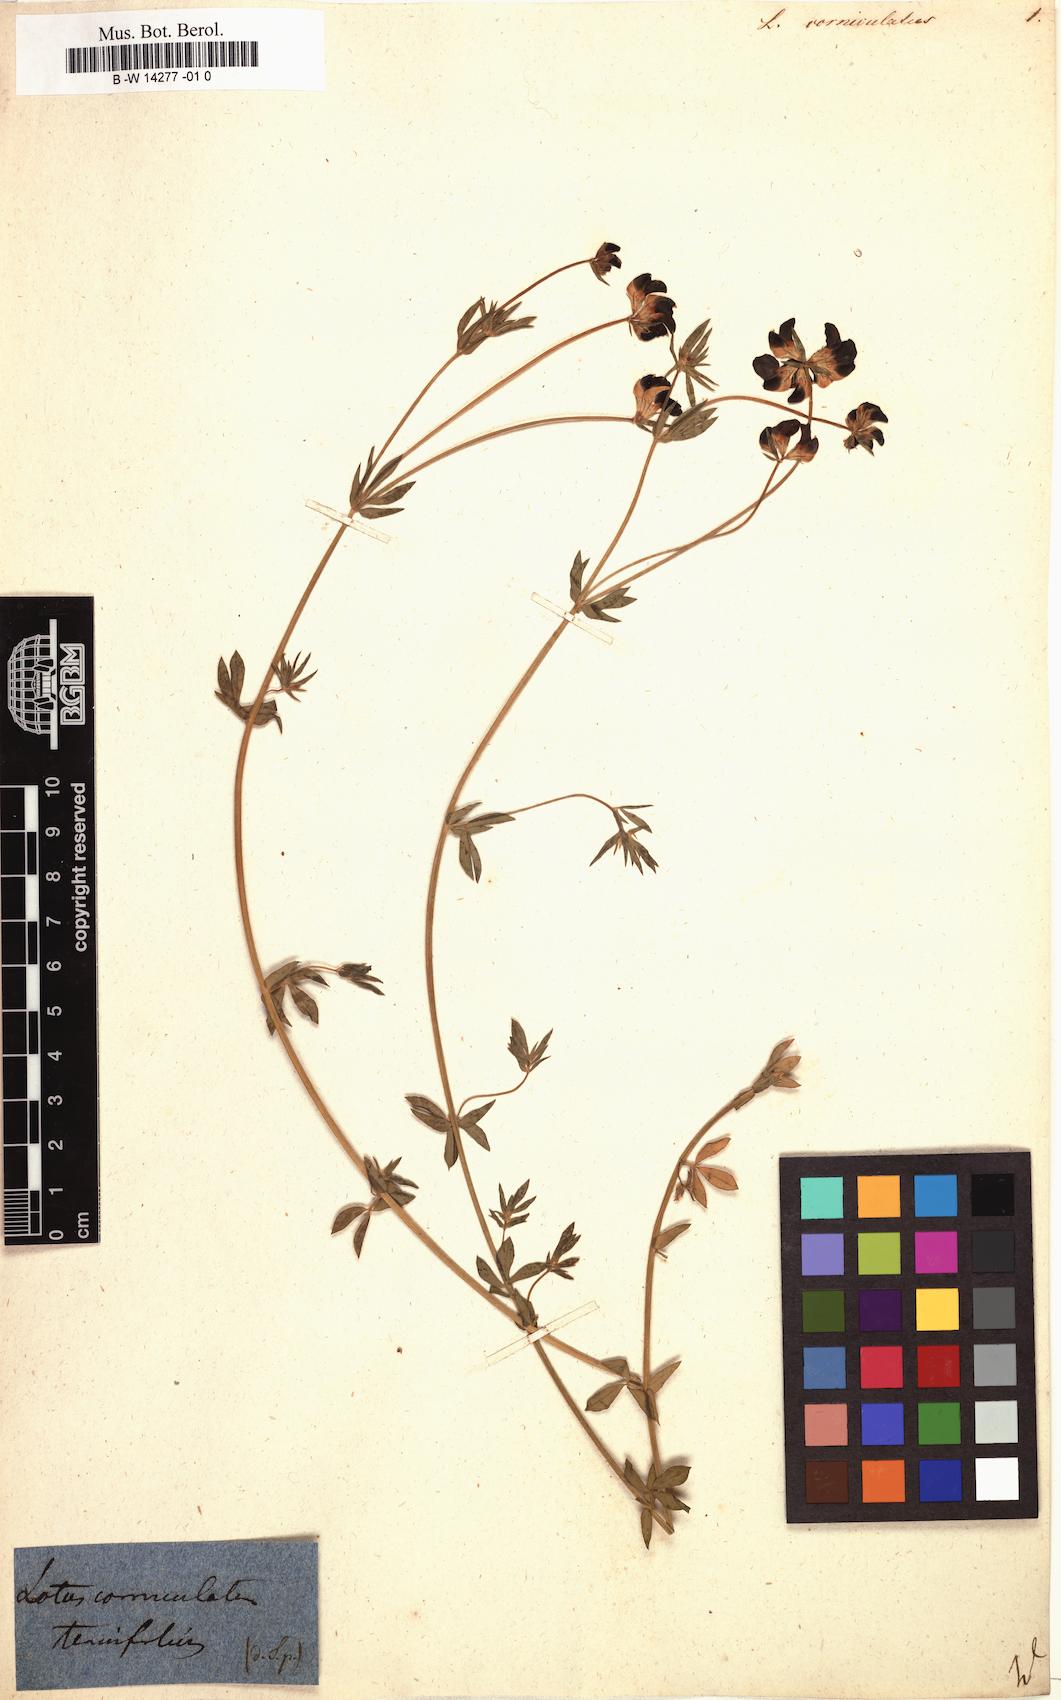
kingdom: Plantae
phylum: Tracheophyta
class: Magnoliopsida
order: Fabales
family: Fabaceae
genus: Lotus
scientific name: Lotus corniculatus
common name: Common bird's-foot-trefoil
